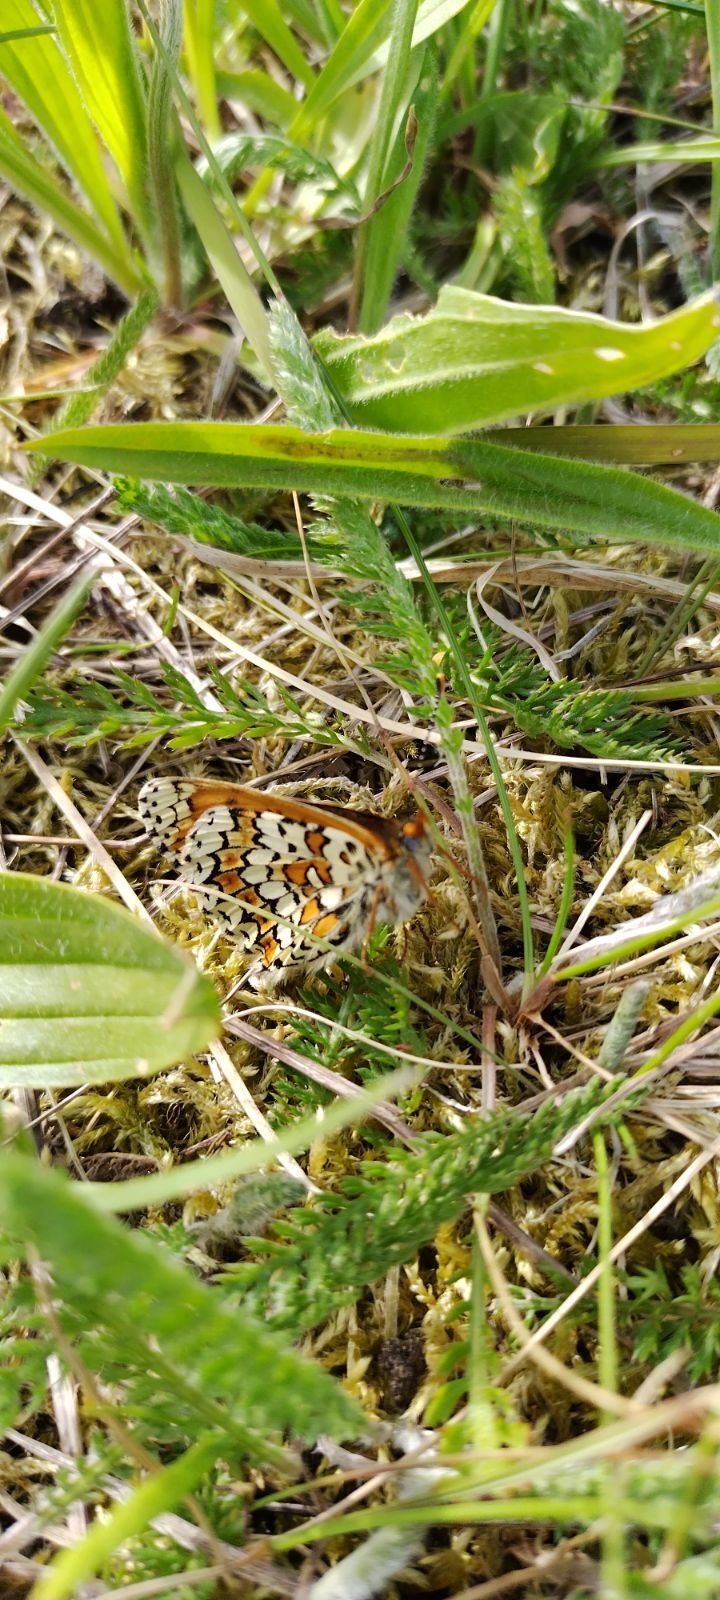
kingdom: Animalia
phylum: Arthropoda
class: Insecta
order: Lepidoptera
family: Nymphalidae
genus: Melitaea
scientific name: Melitaea cinxia
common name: Okkergul pletvinge
